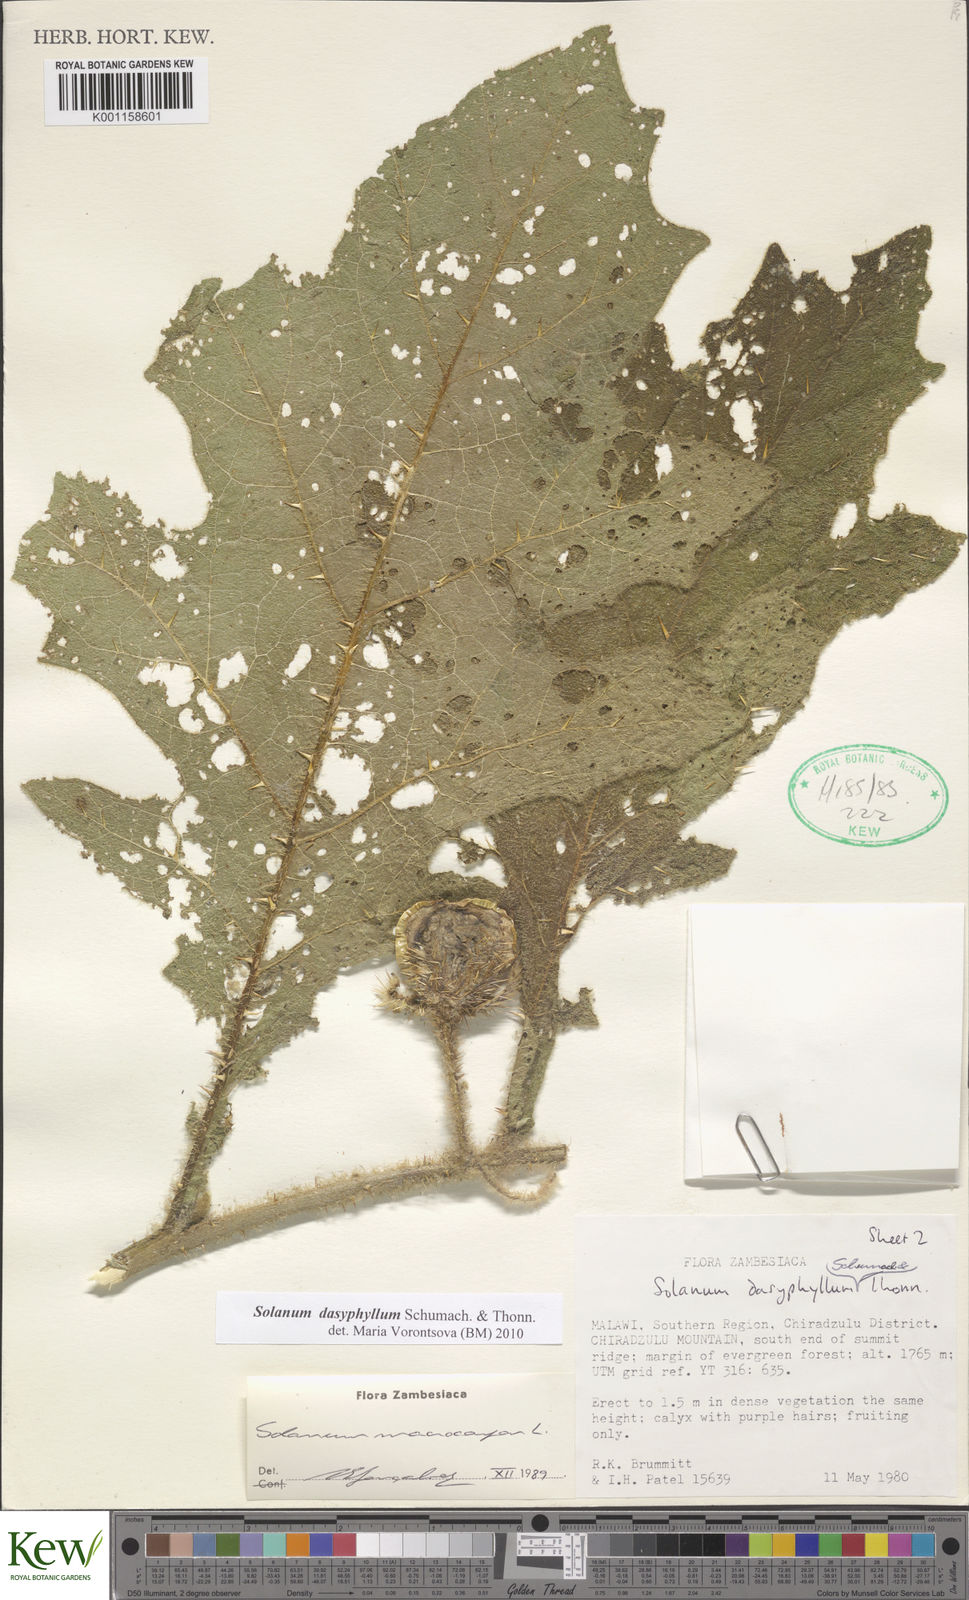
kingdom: Plantae
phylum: Tracheophyta
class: Magnoliopsida
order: Solanales
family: Solanaceae
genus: Solanum
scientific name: Solanum dasyphyllum
